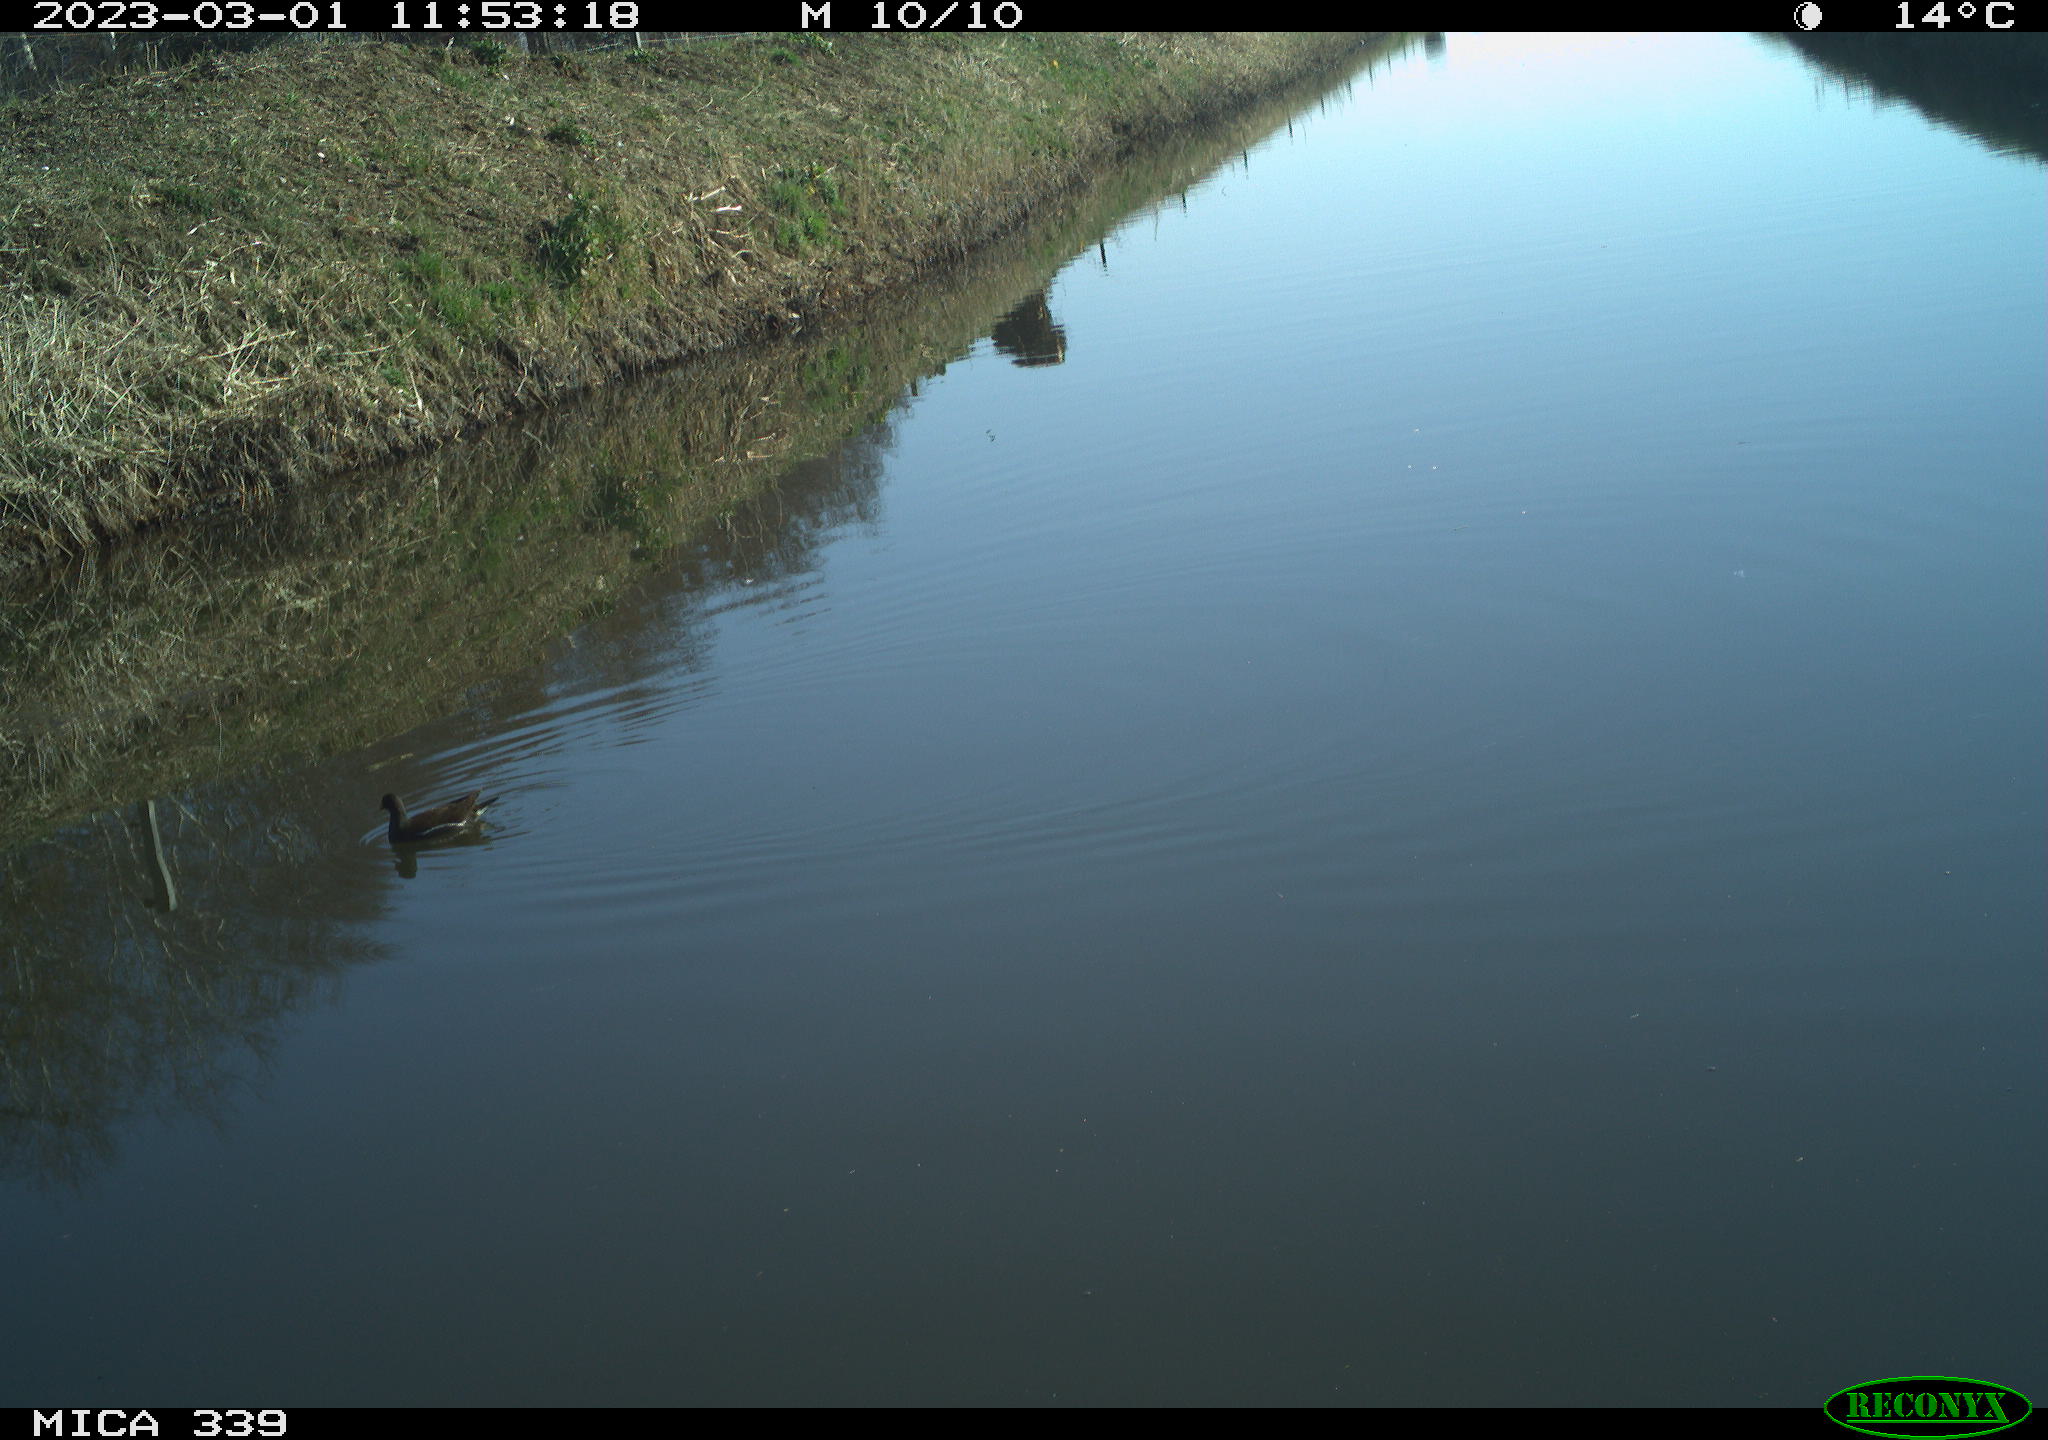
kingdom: Animalia
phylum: Chordata
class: Aves
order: Gruiformes
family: Rallidae
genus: Gallinula
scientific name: Gallinula chloropus
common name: Common moorhen
